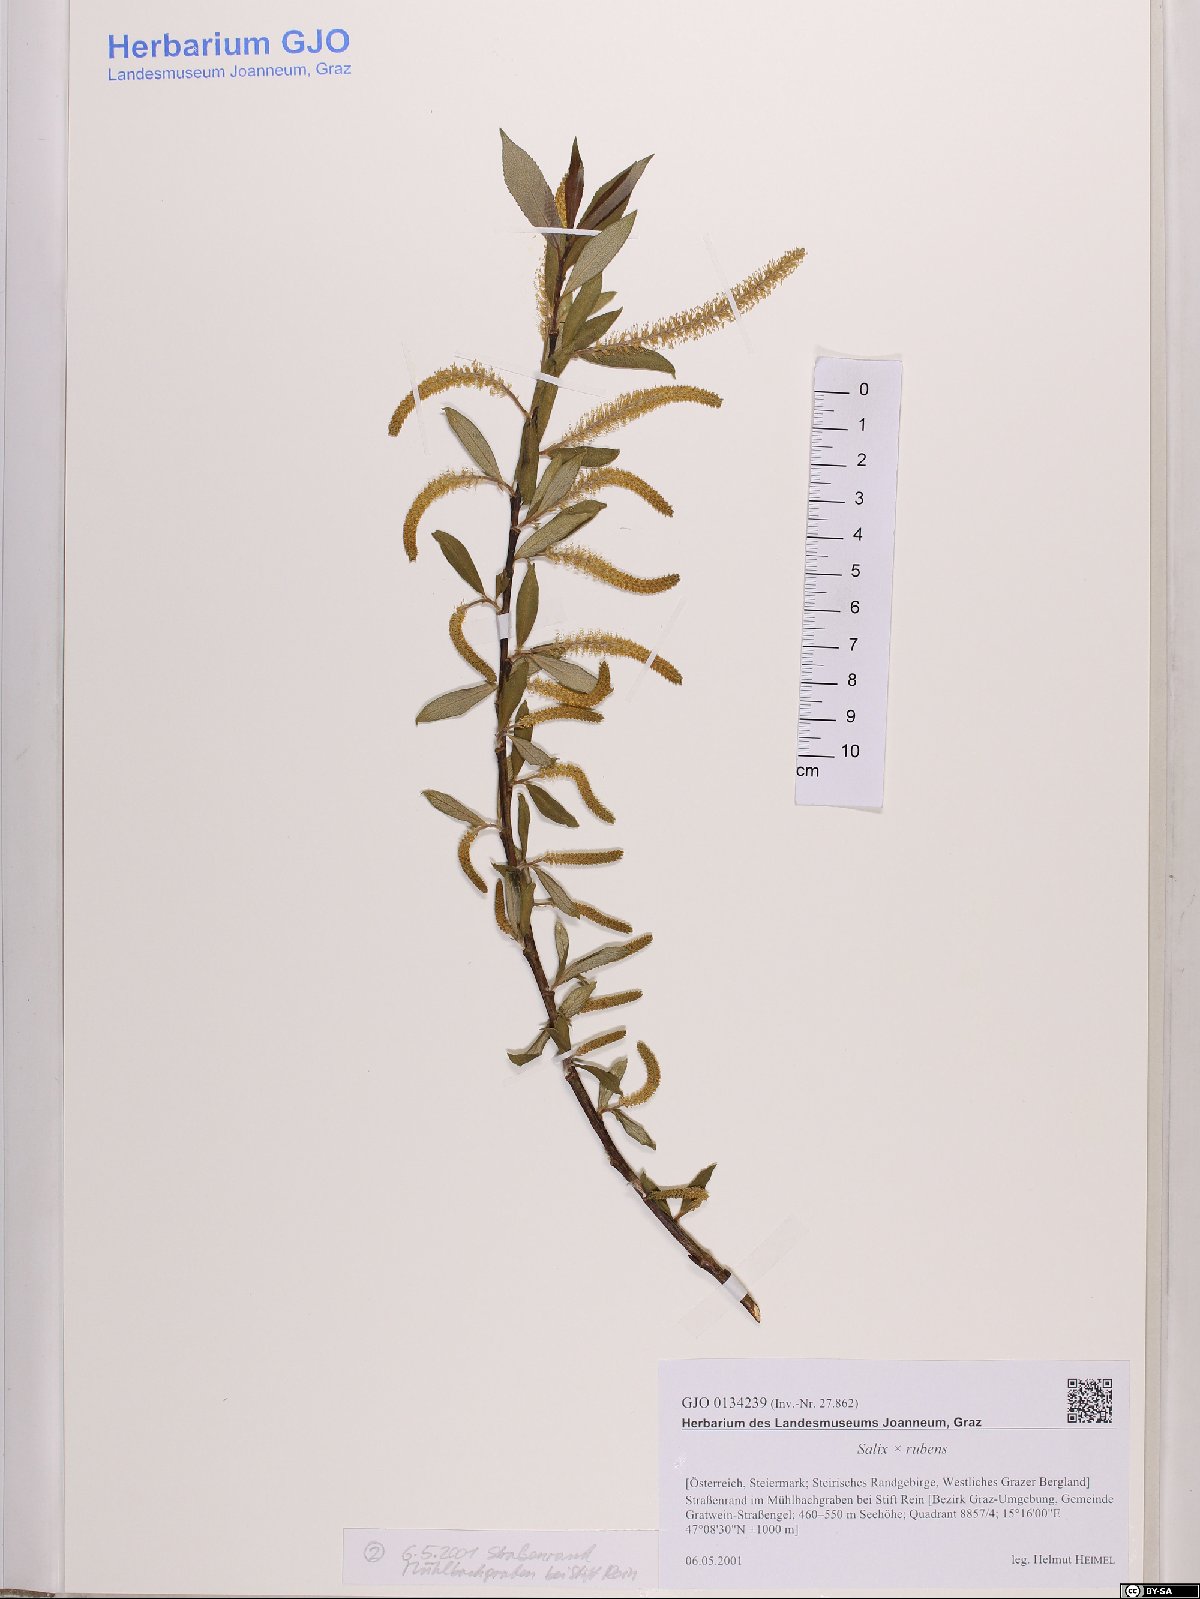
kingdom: Plantae
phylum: Tracheophyta
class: Magnoliopsida
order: Malpighiales
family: Salicaceae
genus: Salix
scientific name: Salix rubens
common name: Hybrid crack willow
